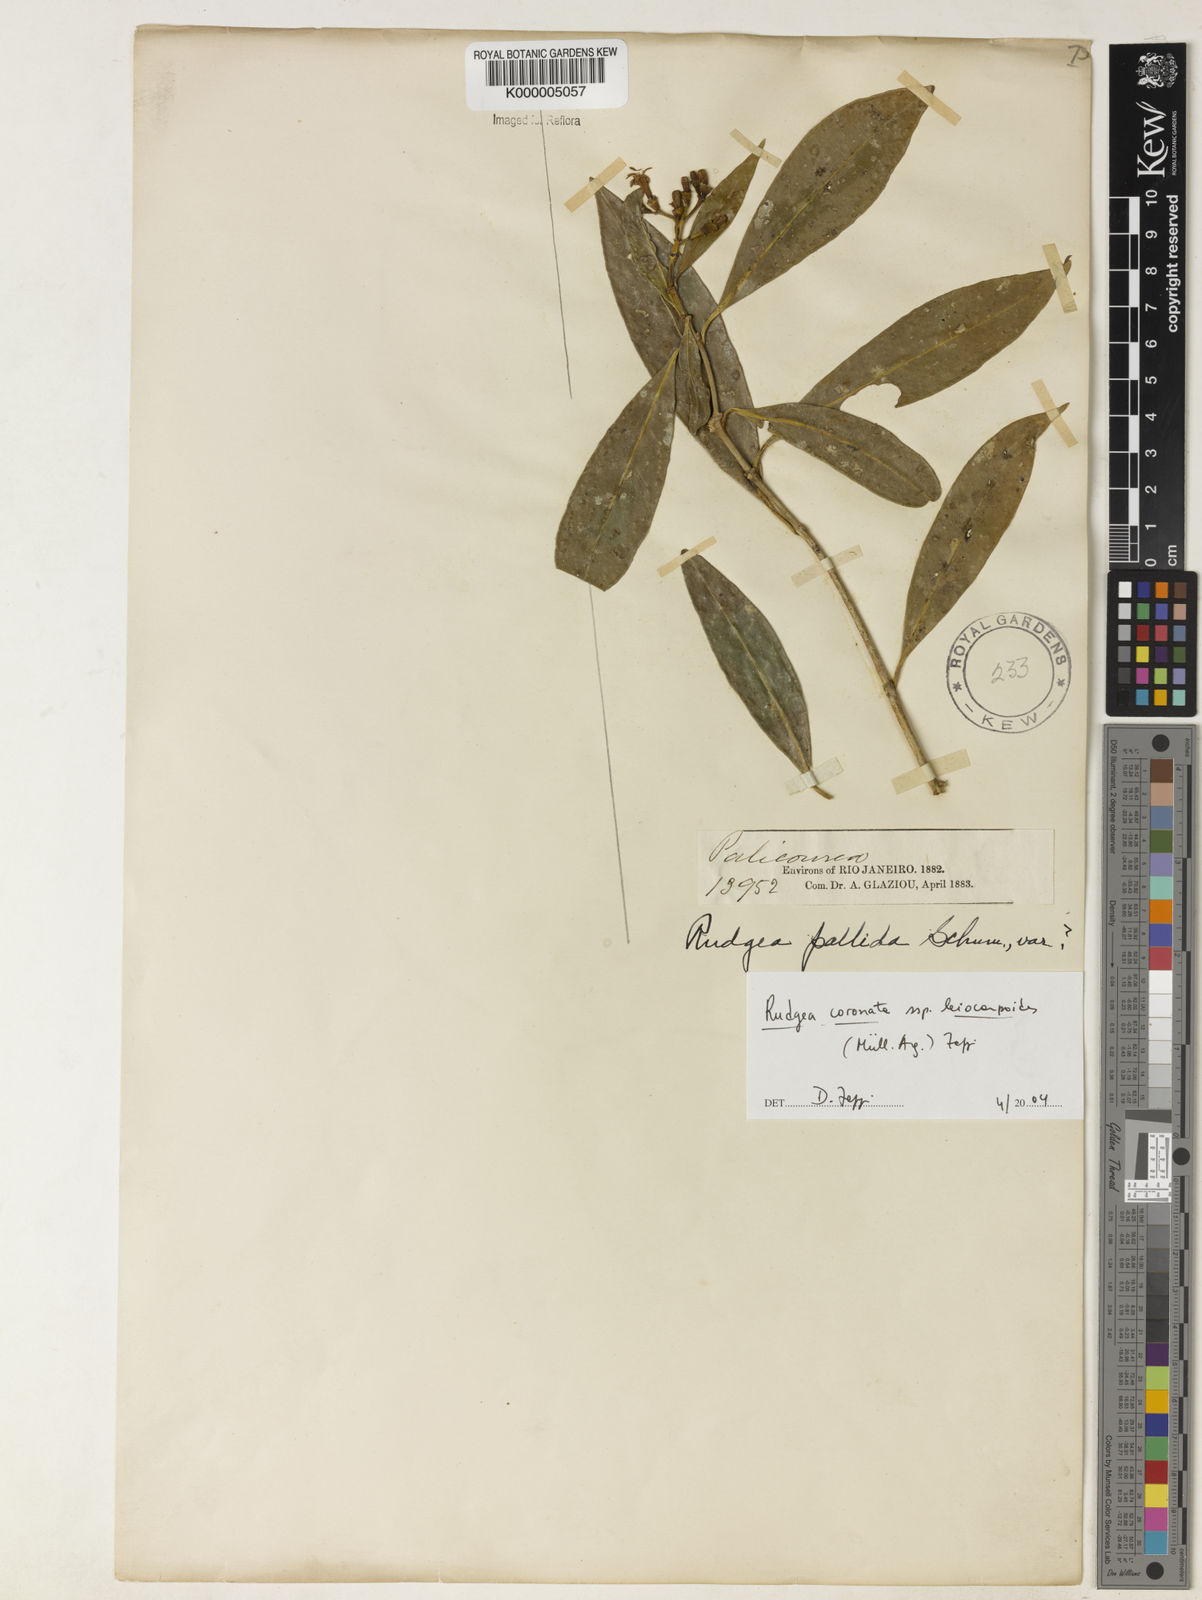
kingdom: Plantae
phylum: Tracheophyta
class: Magnoliopsida
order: Gentianales
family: Rubiaceae
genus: Rudgea
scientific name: Rudgea coronata
